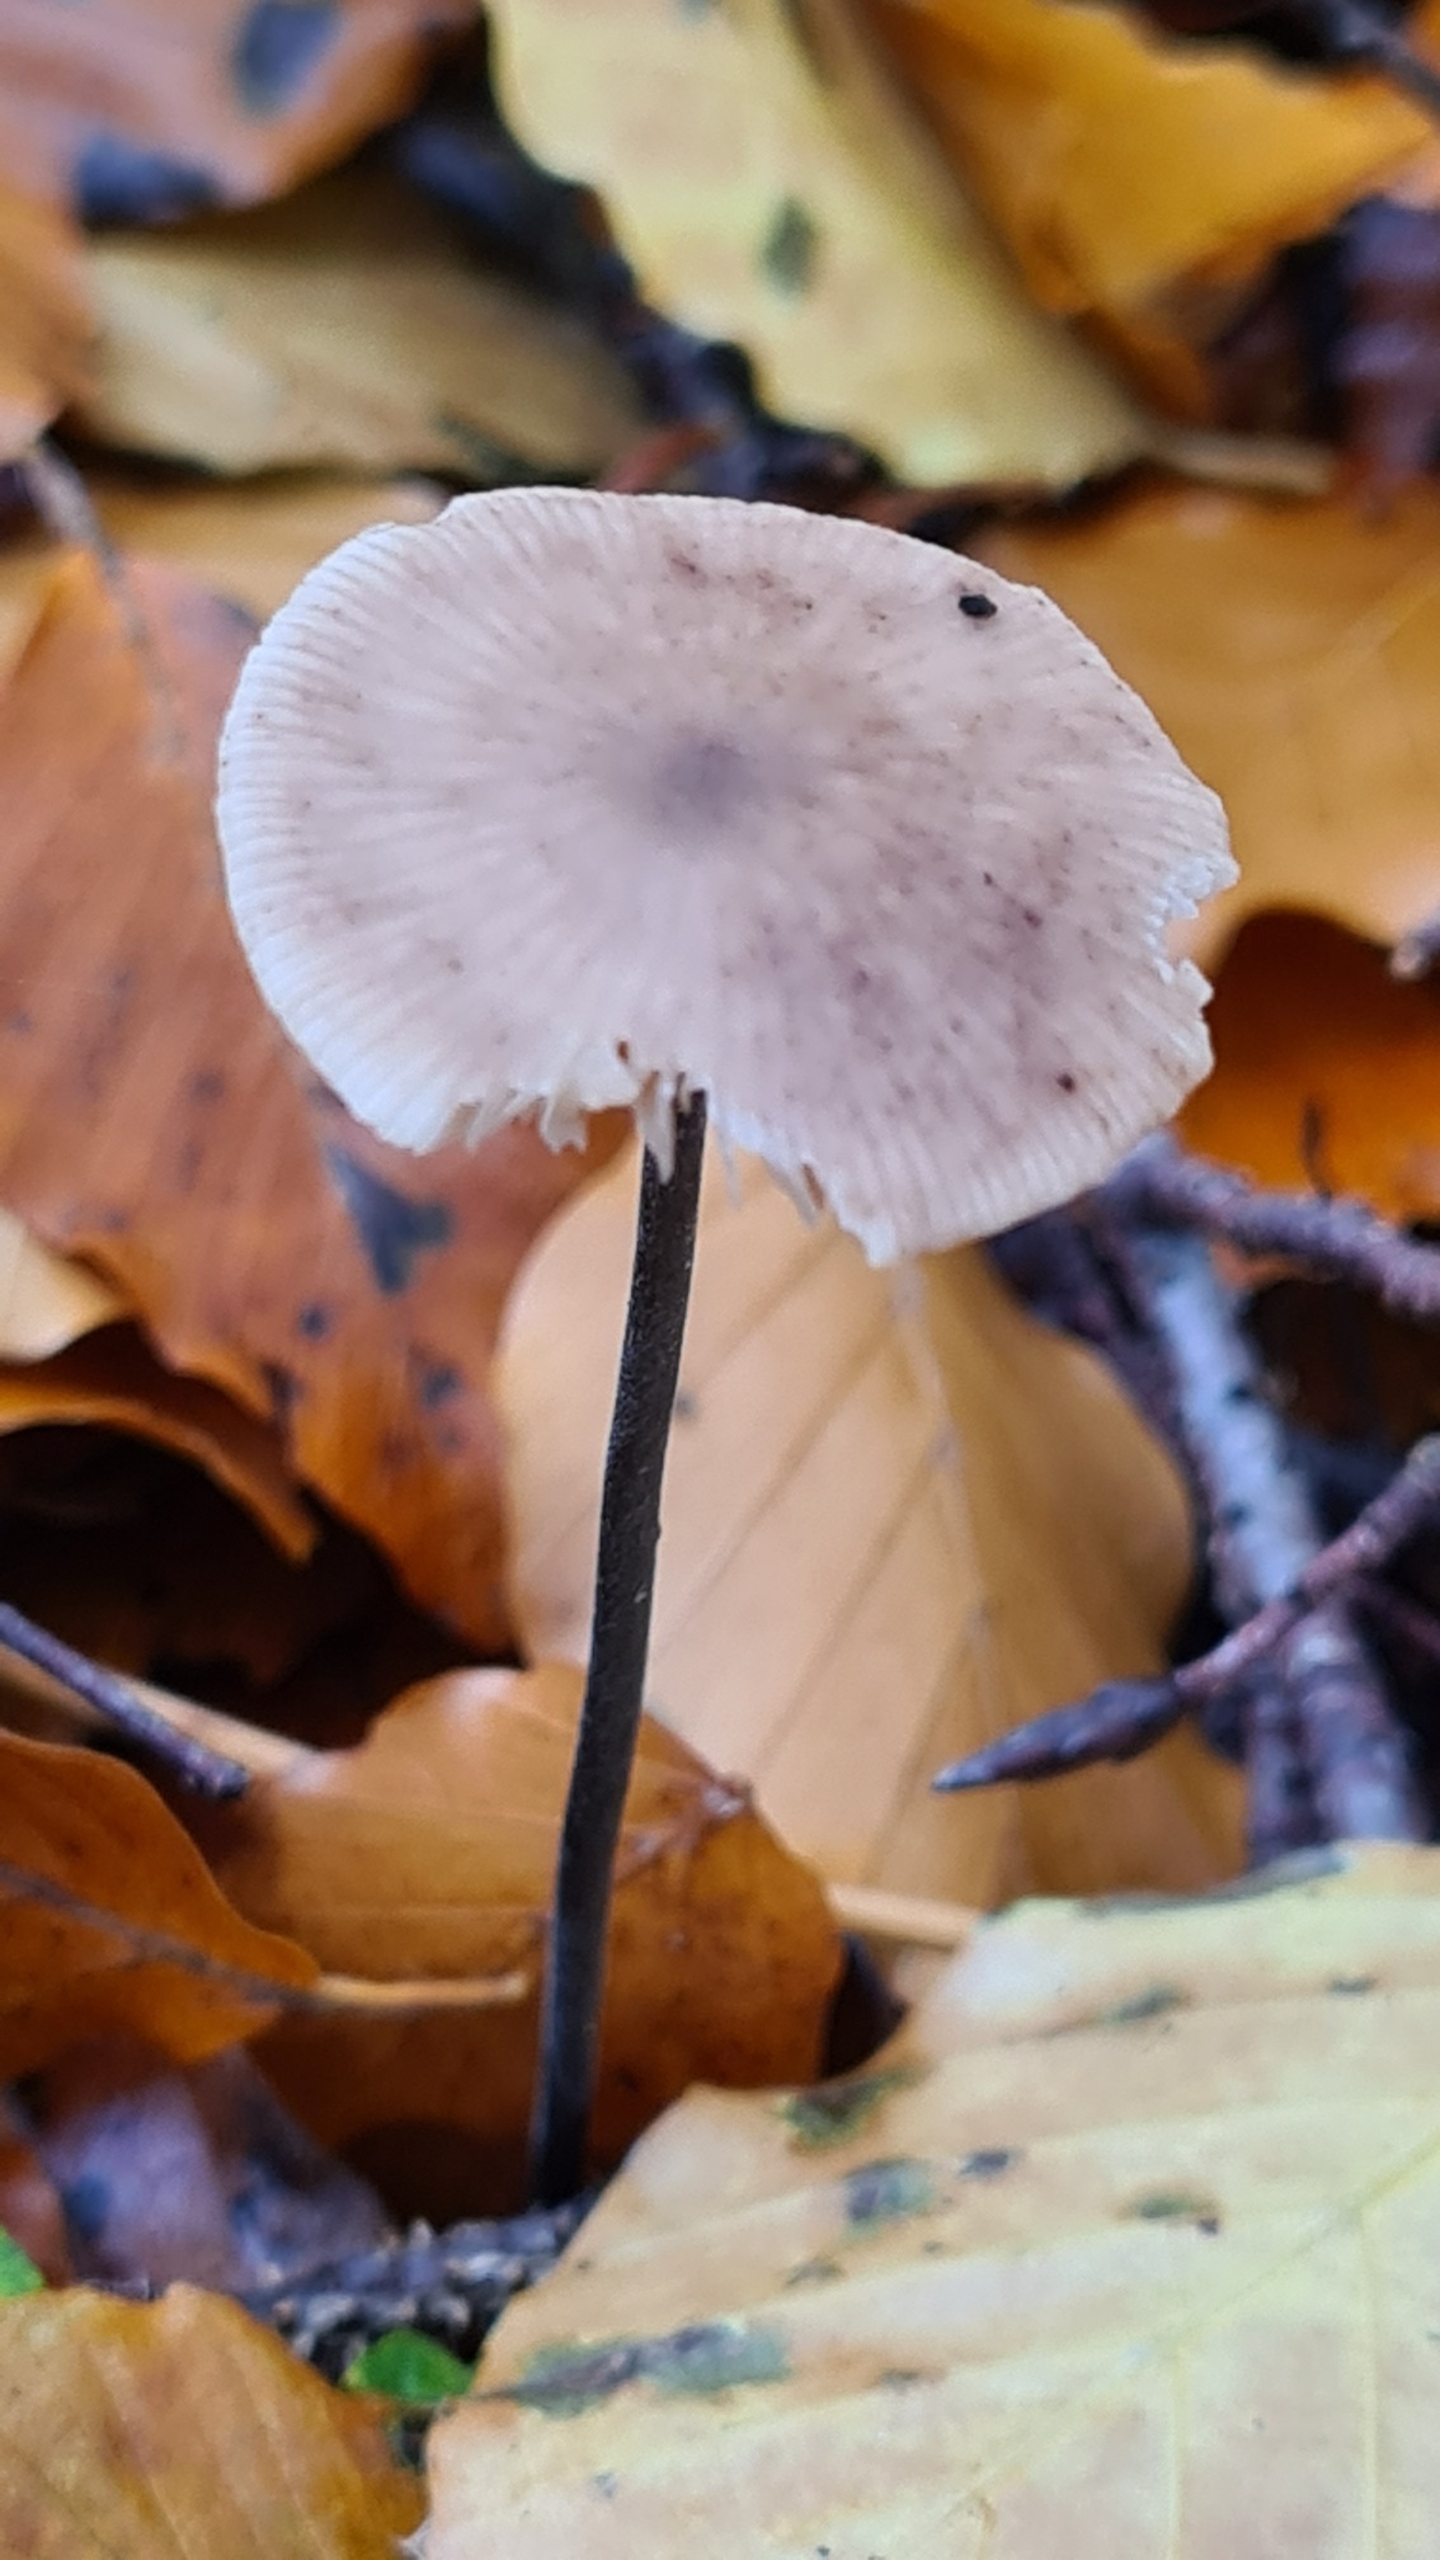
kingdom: Fungi
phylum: Basidiomycota
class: Agaricomycetes
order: Agaricales
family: Omphalotaceae
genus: Mycetinis
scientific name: Mycetinis alliaceus
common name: Stor løghat
